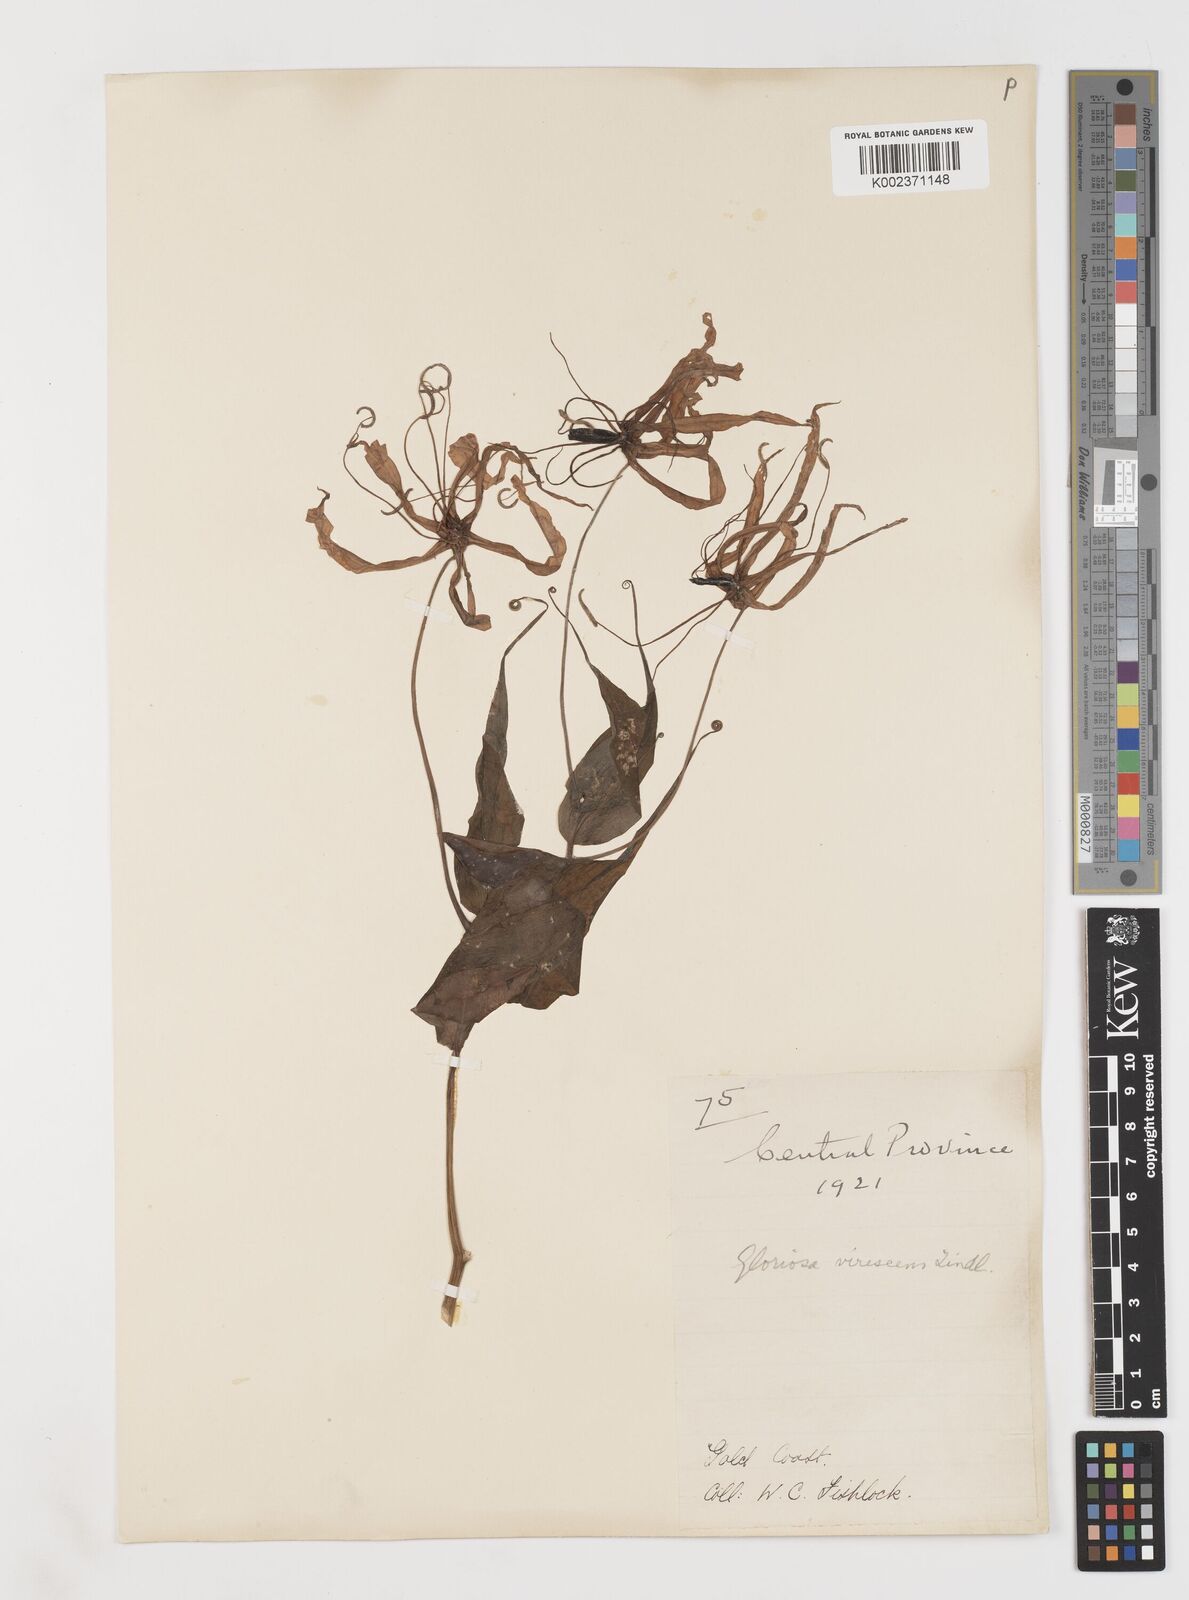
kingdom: Plantae
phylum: Tracheophyta
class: Liliopsida
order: Liliales
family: Colchicaceae
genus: Gloriosa
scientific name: Gloriosa simplex
